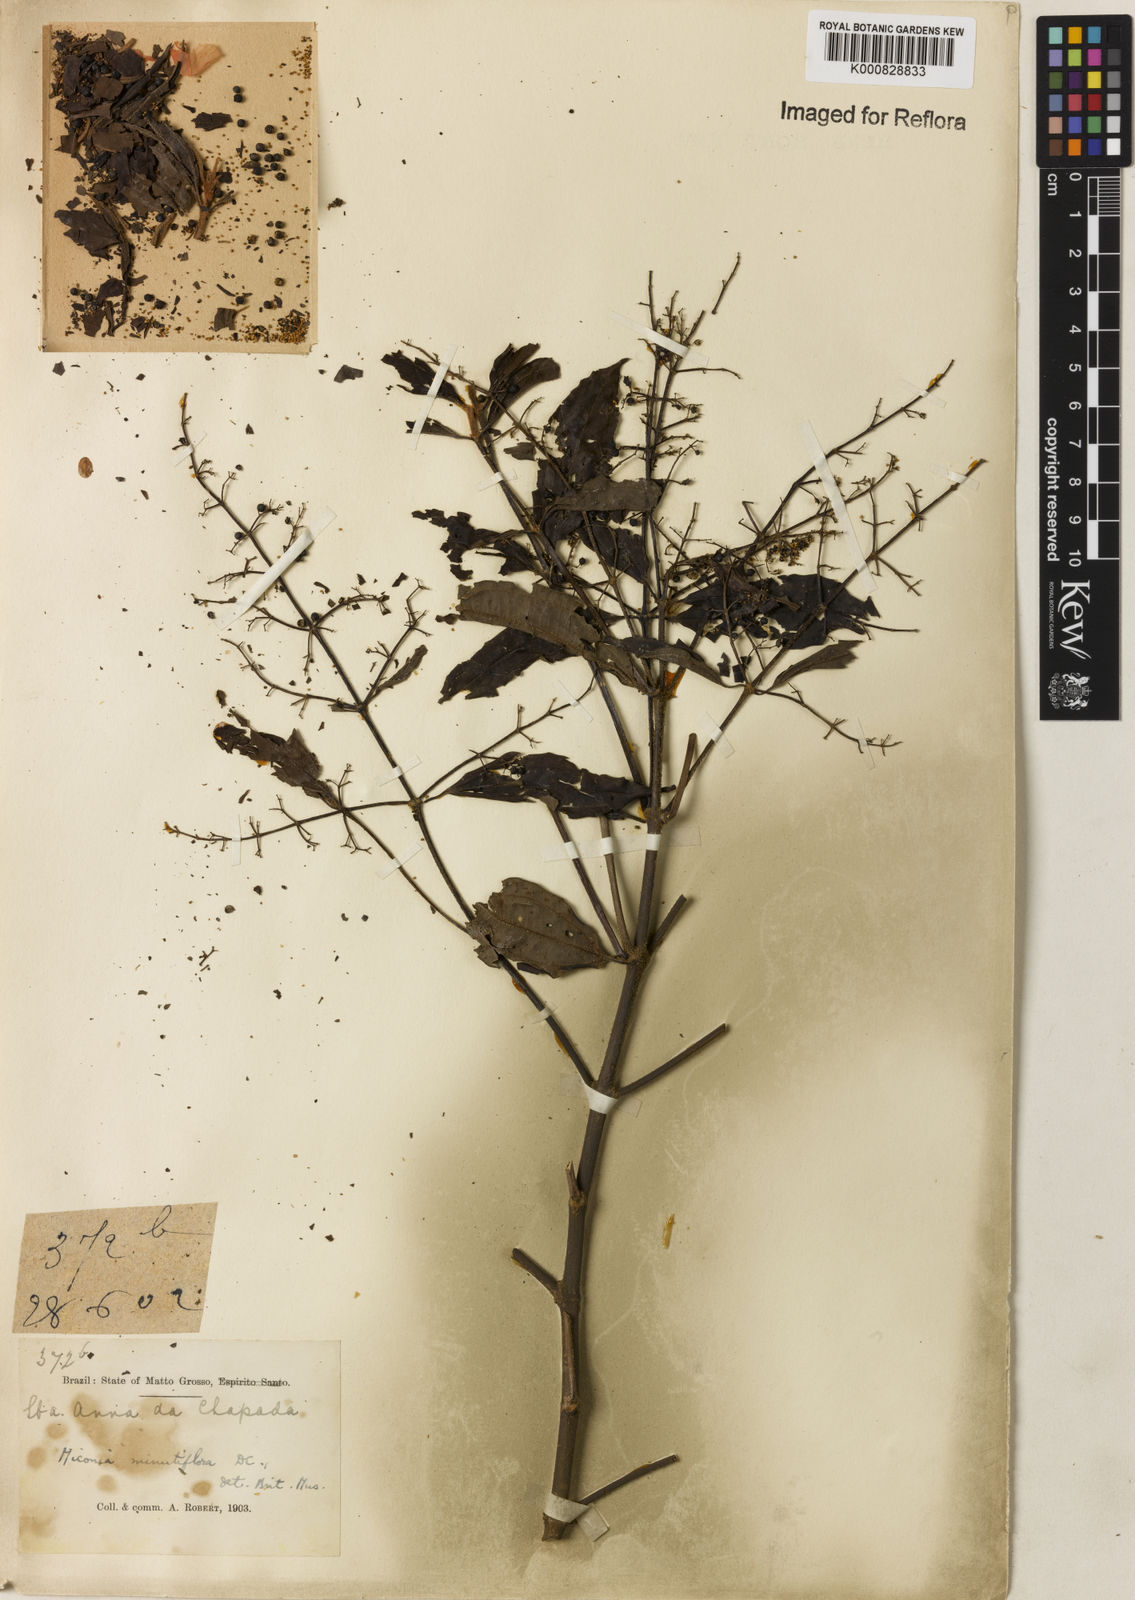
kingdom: Plantae
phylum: Tracheophyta
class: Magnoliopsida
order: Myrtales
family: Melastomataceae
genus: Miconia
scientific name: Miconia minutiflora
